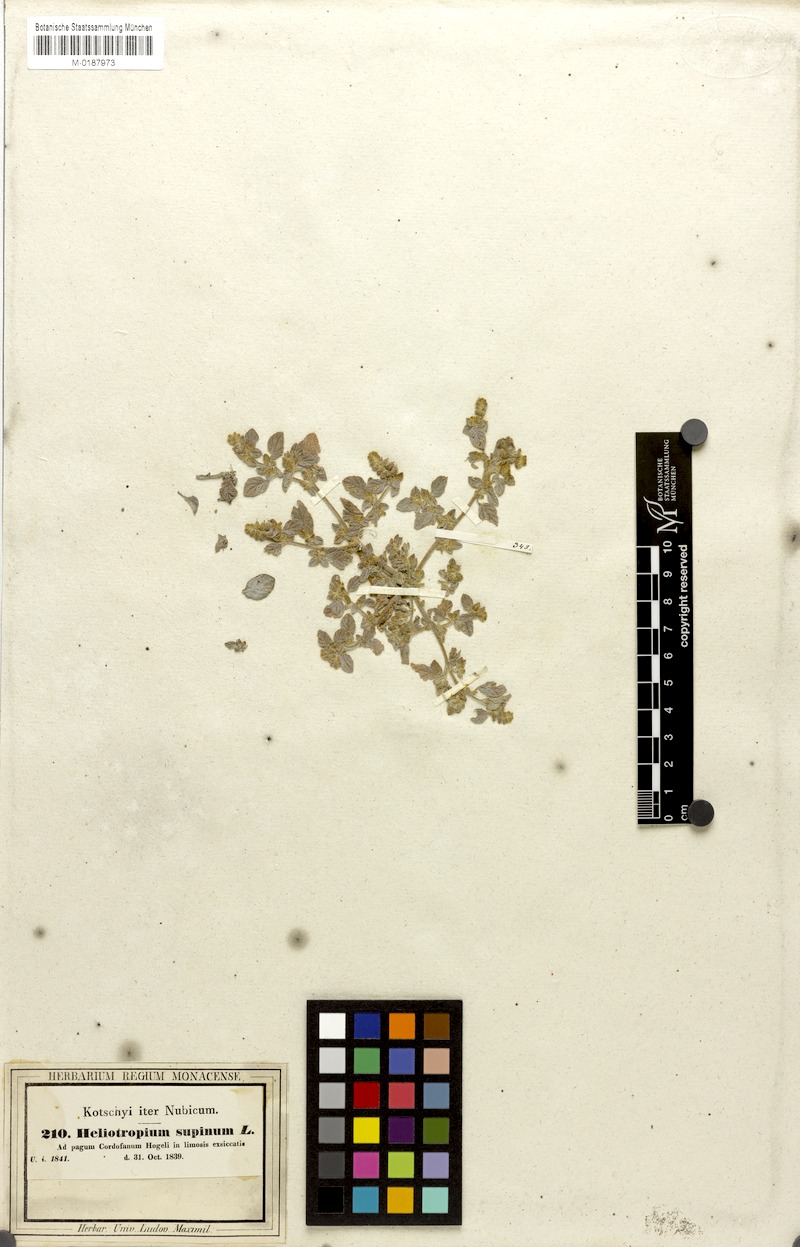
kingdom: Plantae
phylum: Tracheophyta
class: Magnoliopsida
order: Boraginales
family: Heliotropiaceae
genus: Heliotropium
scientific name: Heliotropium supinum
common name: Dwarf heliotrope
